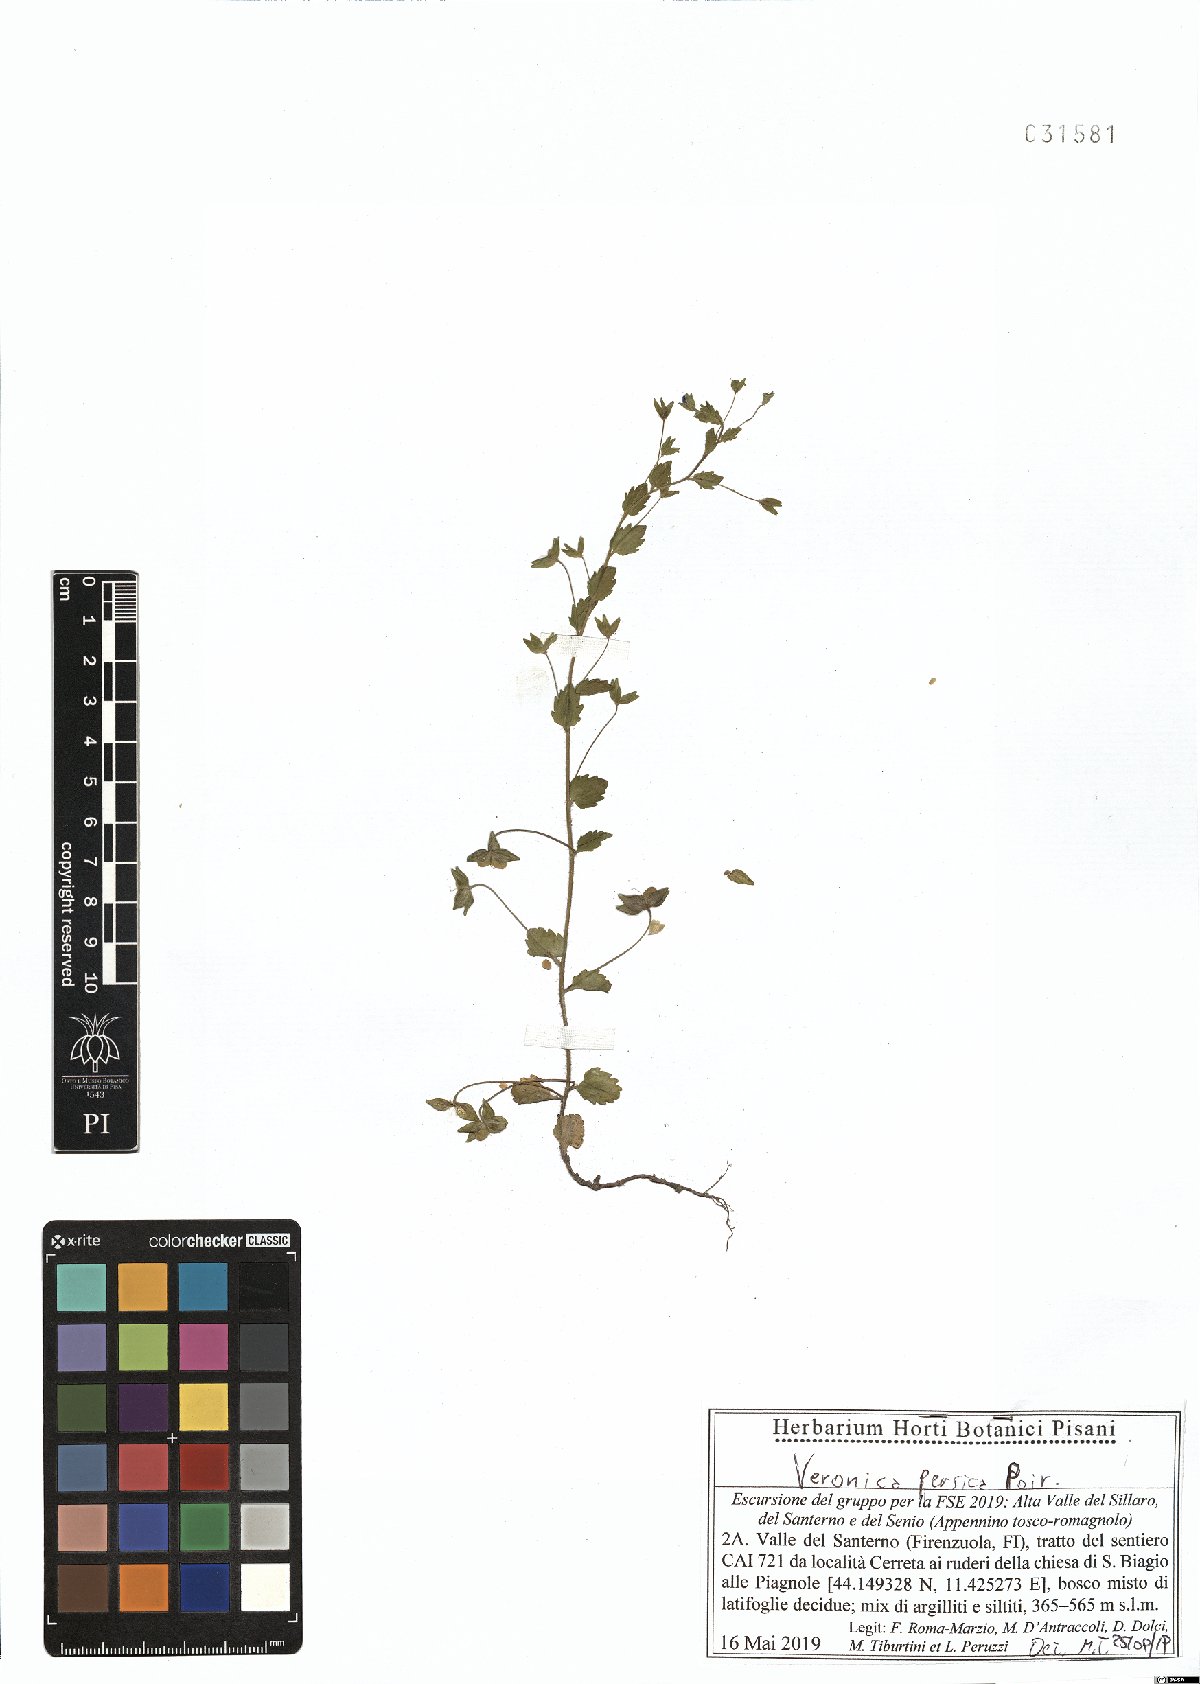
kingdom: Plantae
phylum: Tracheophyta
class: Magnoliopsida
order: Lamiales
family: Plantaginaceae
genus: Veronica
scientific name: Veronica persica
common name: Common field-speedwell
